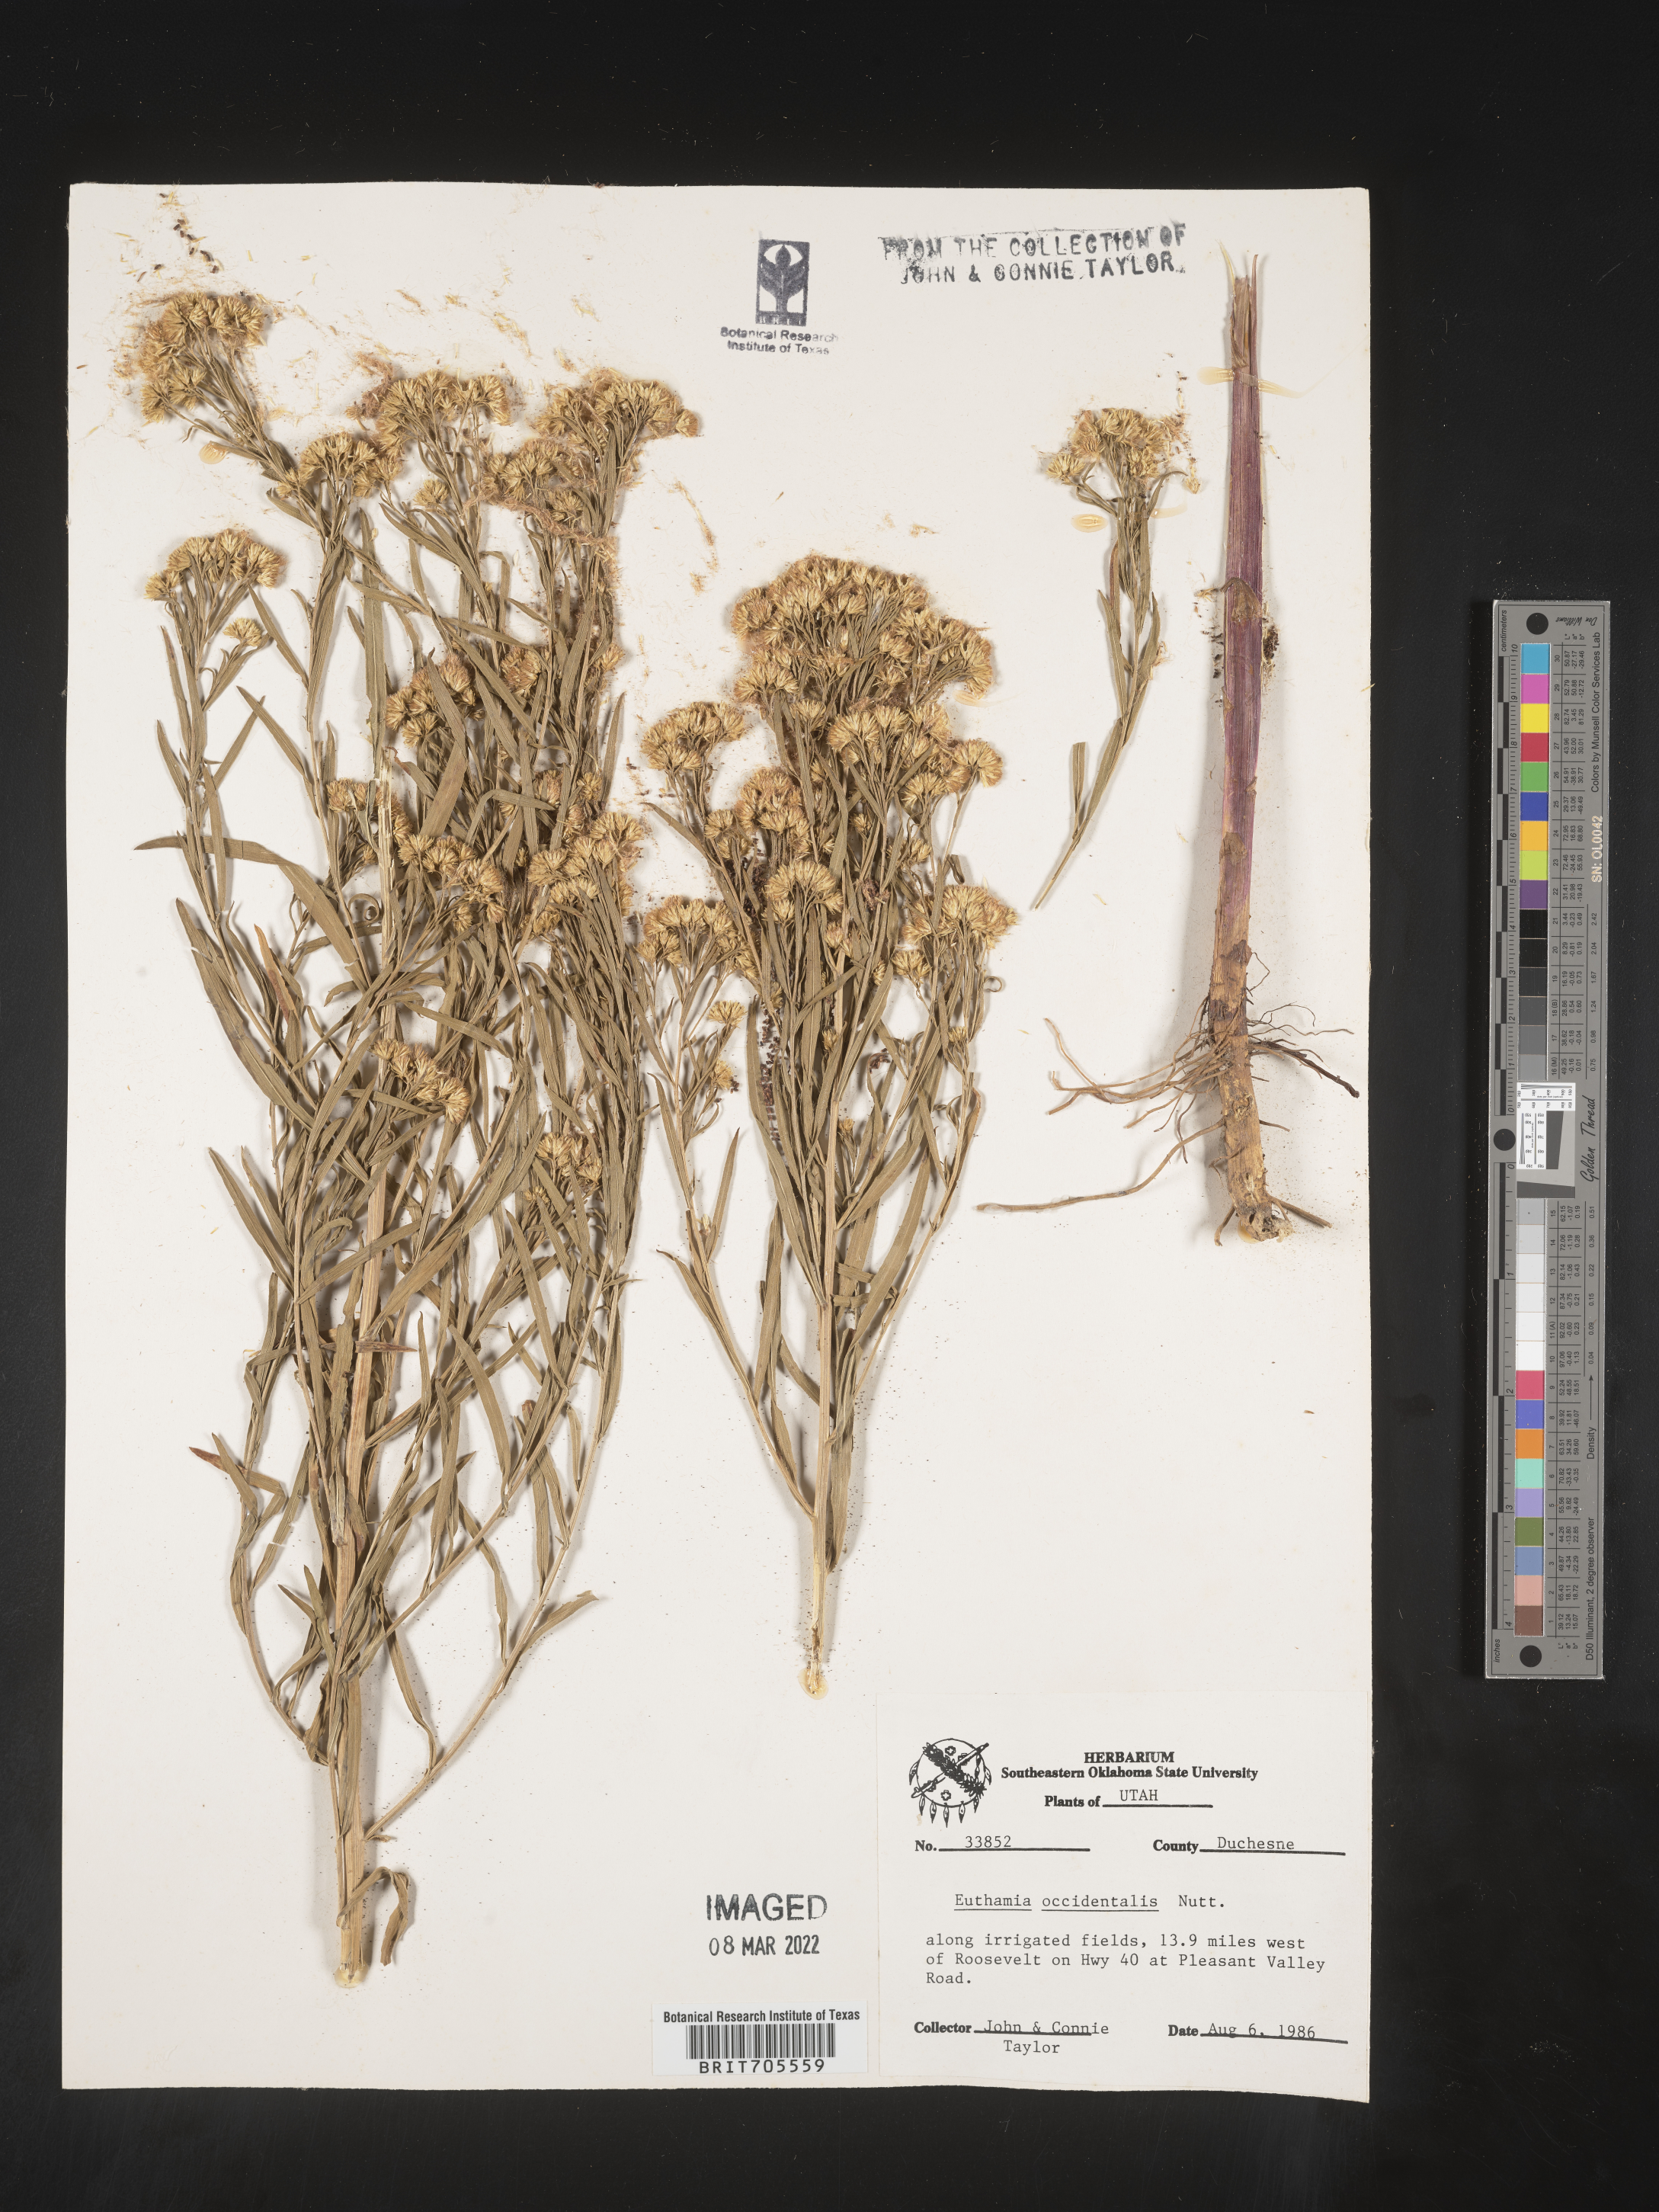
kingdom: Plantae
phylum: Tracheophyta
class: Magnoliopsida
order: Asterales
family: Asteraceae
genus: Euthamia
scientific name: Euthamia occidentalis
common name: Western goldentop
